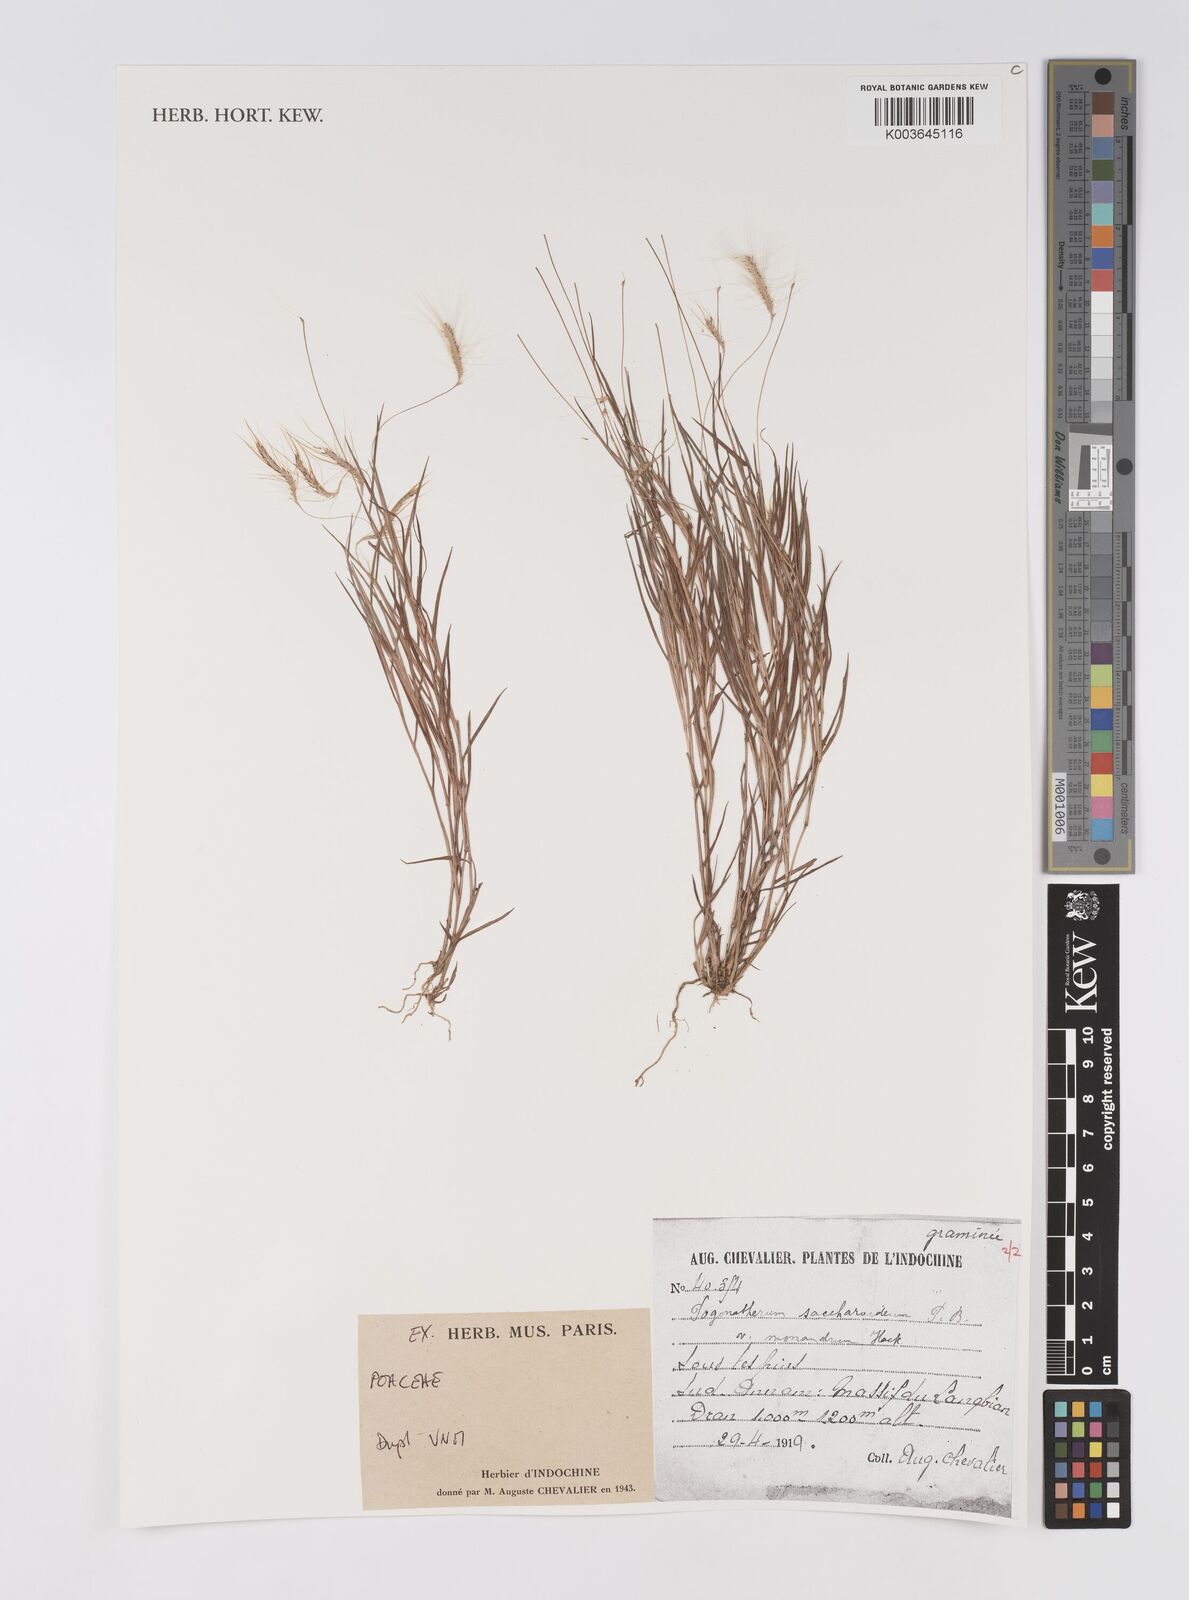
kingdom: Plantae
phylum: Tracheophyta
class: Liliopsida
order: Poales
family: Poaceae
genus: Pogonatherum
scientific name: Pogonatherum paniceum
